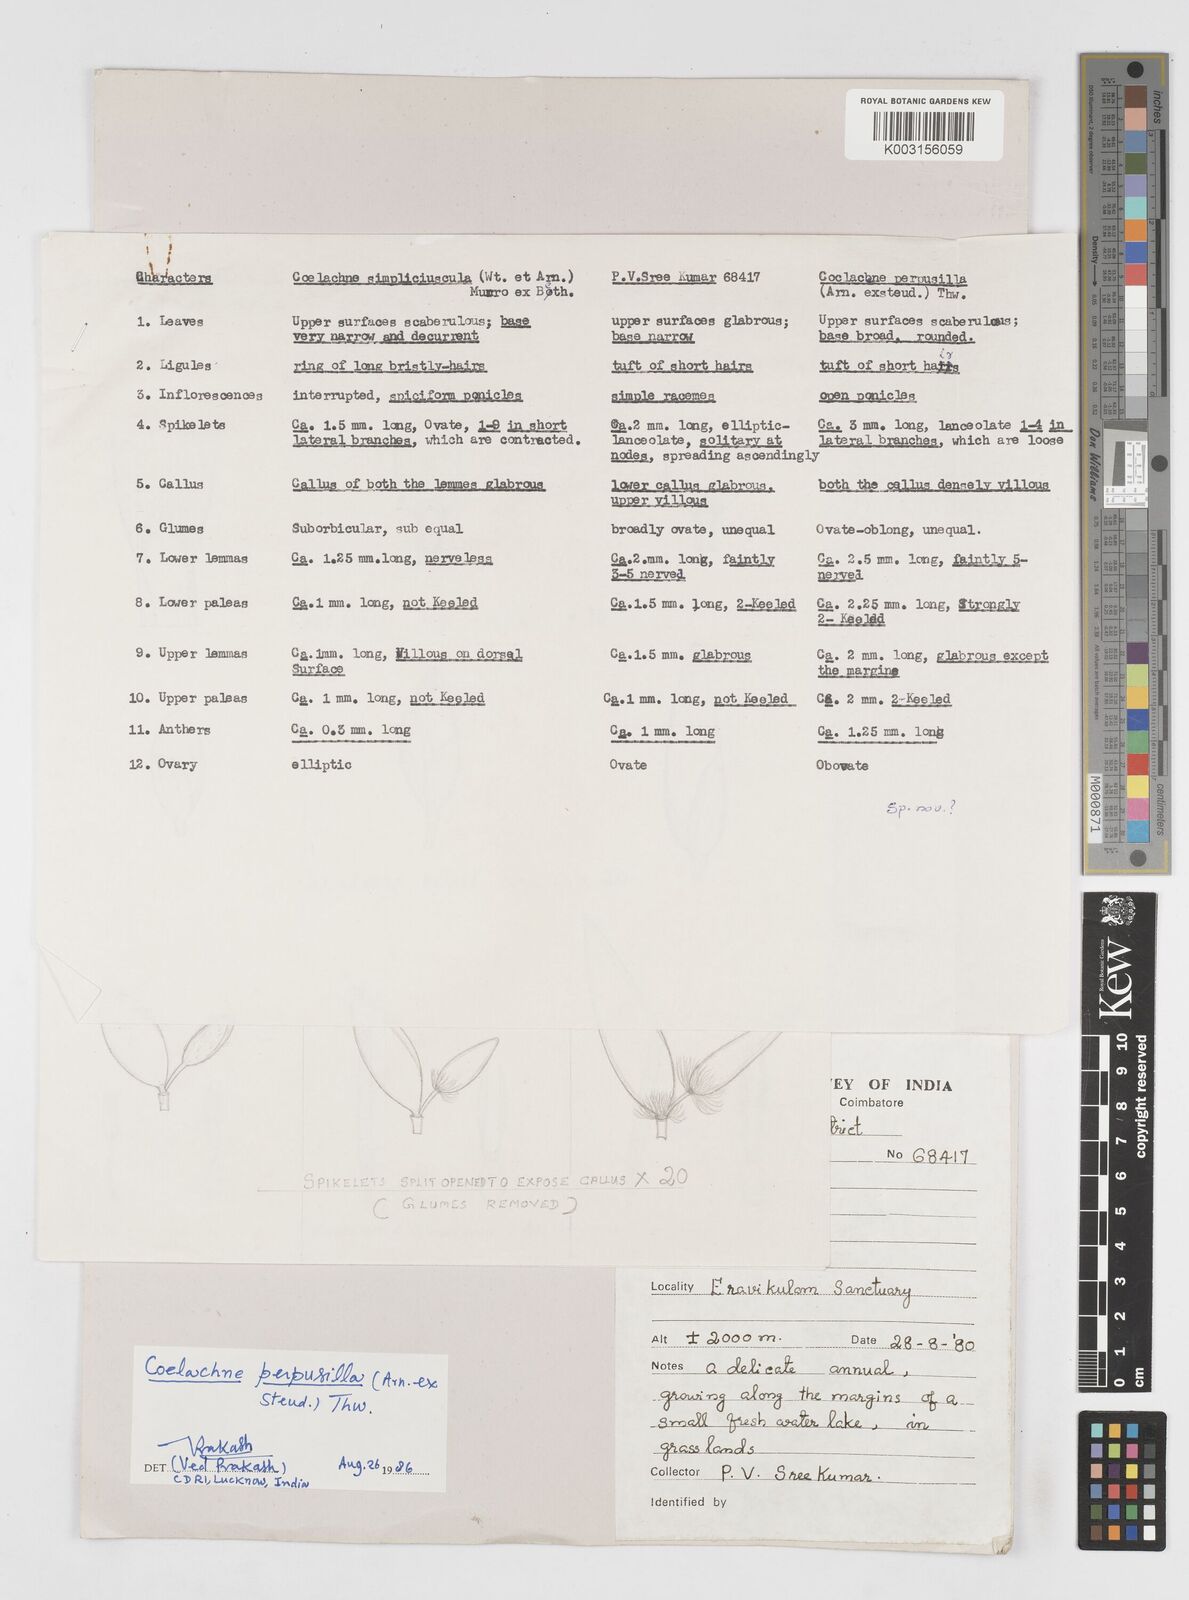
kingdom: Plantae
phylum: Tracheophyta
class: Liliopsida
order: Poales
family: Poaceae
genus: Coelachne
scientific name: Coelachne perpusilla
